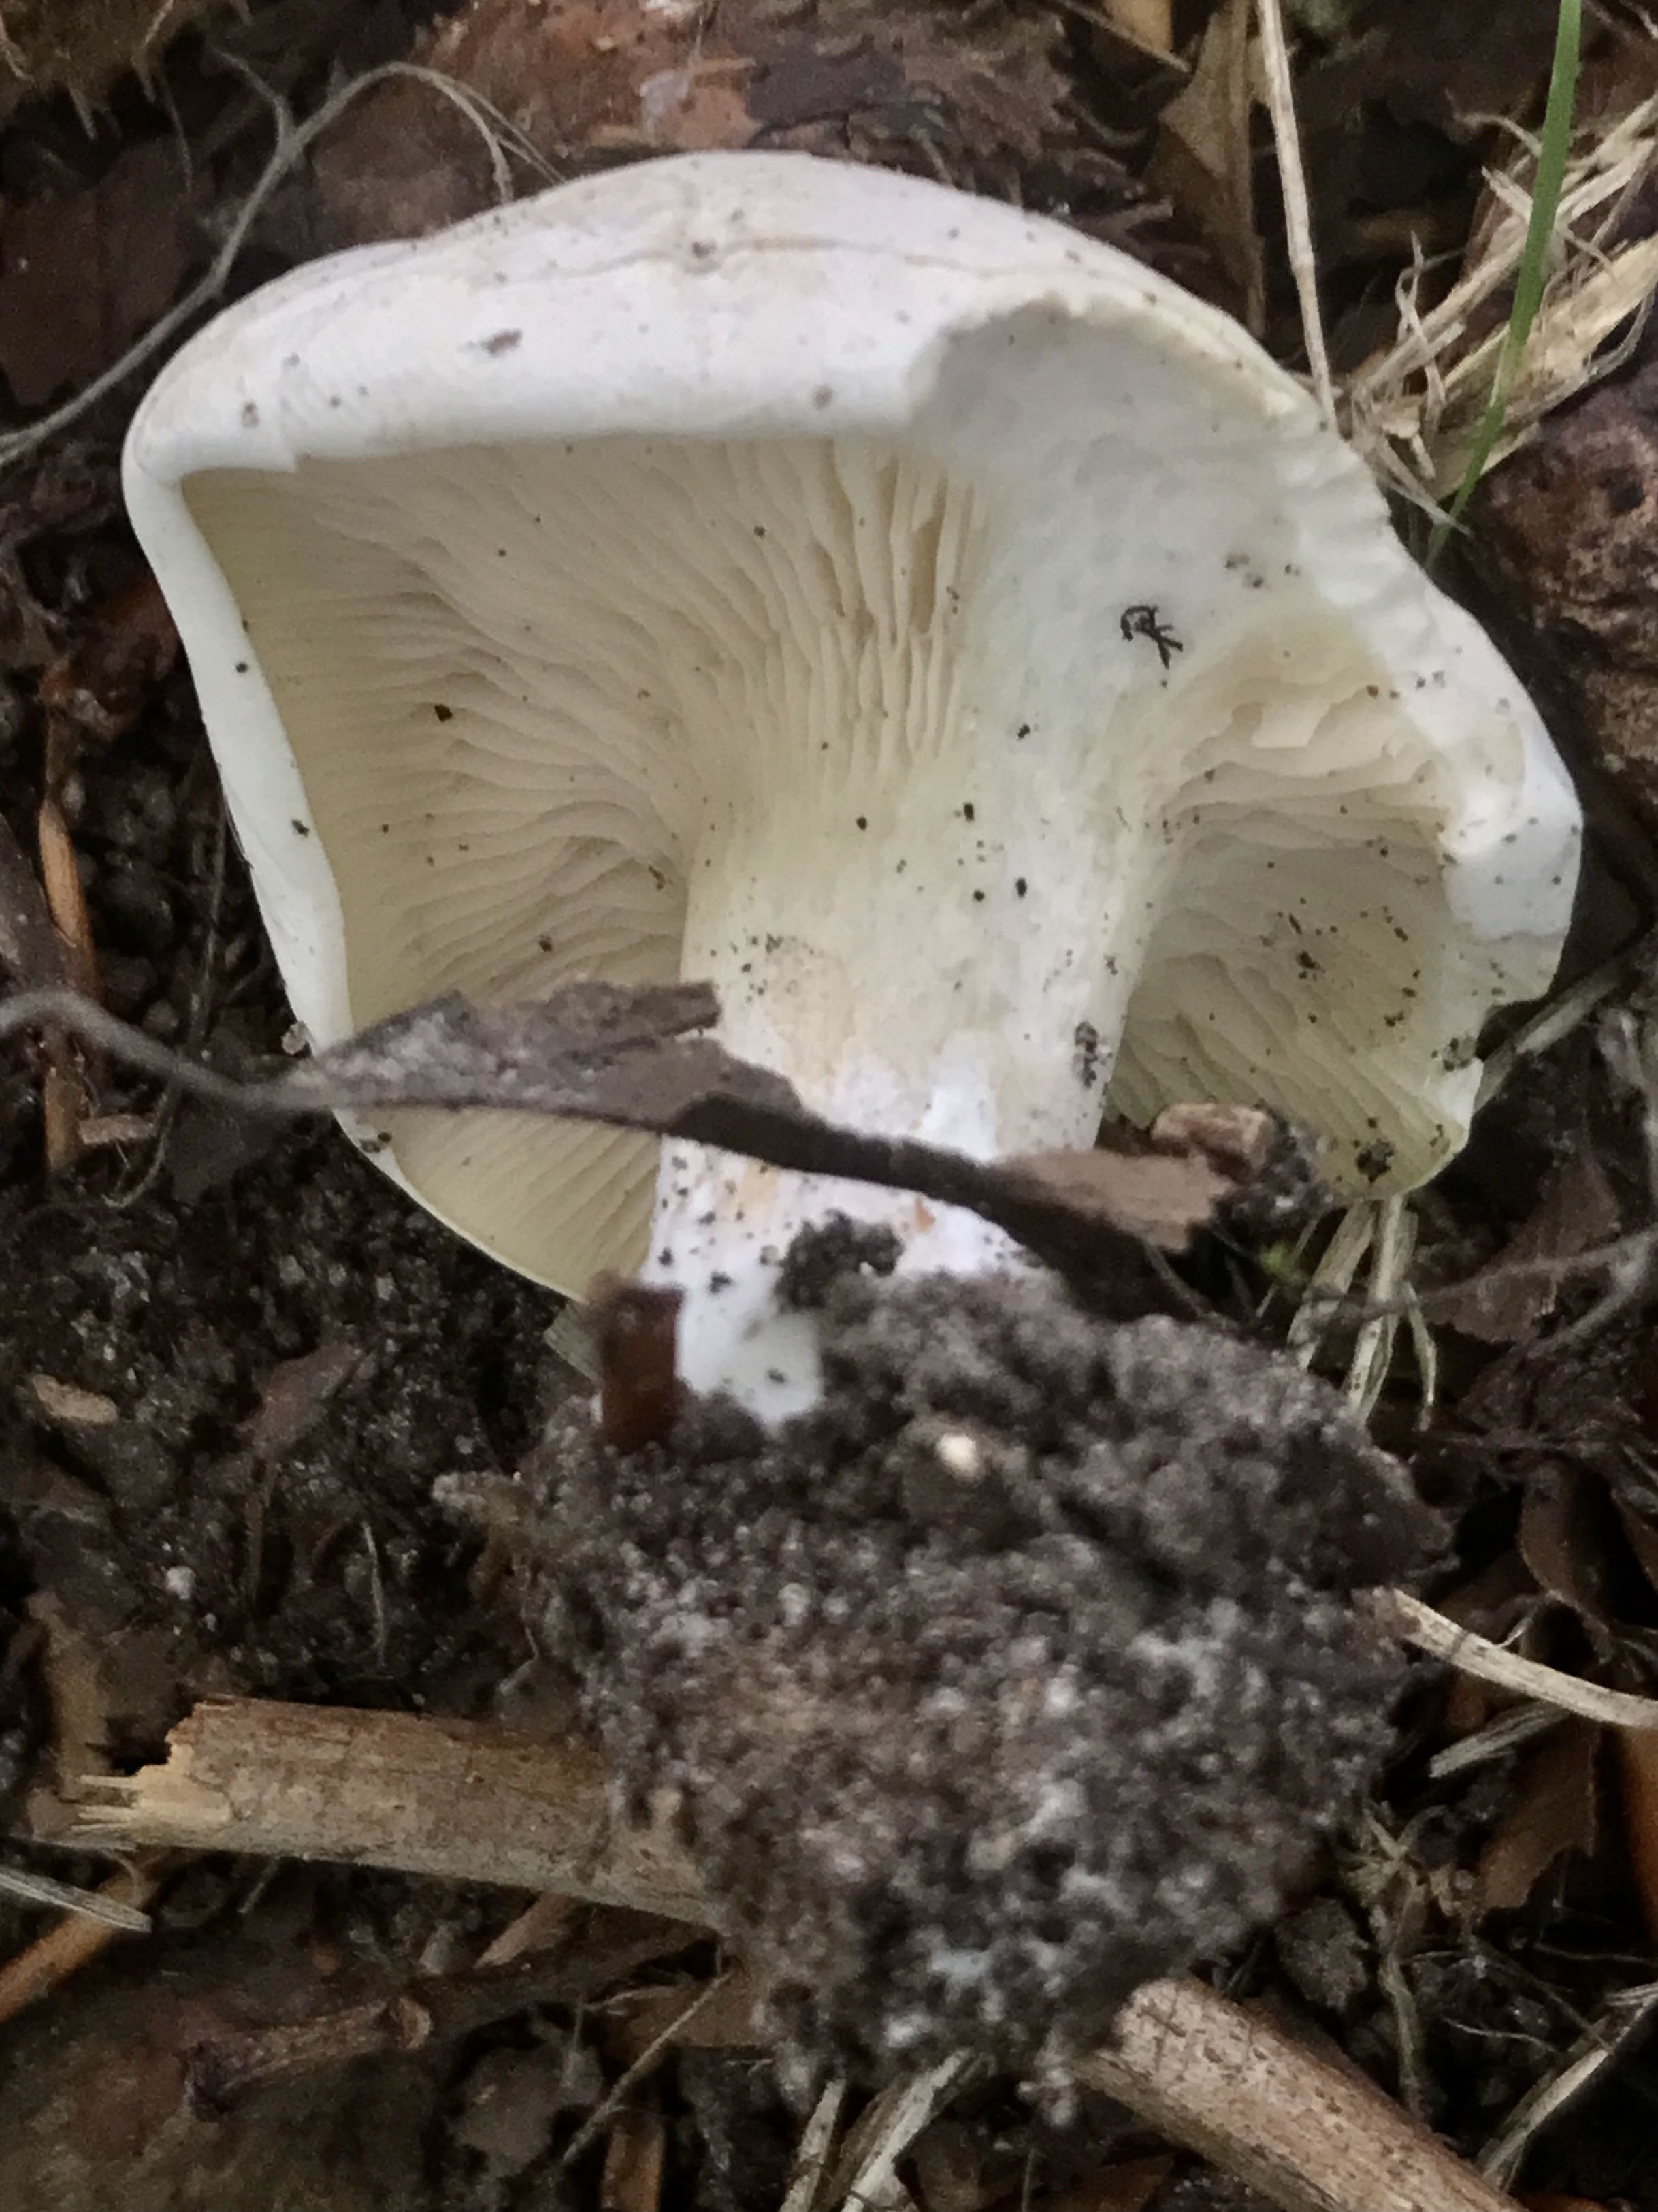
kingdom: Fungi
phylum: Basidiomycota
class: Agaricomycetes
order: Agaricales
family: Entolomataceae
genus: Clitopilus
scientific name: Clitopilus prunulus
